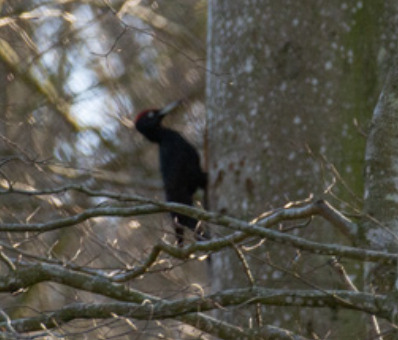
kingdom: Animalia
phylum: Chordata
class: Aves
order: Piciformes
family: Picidae
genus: Dryocopus
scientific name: Dryocopus martius
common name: Sortspætte
